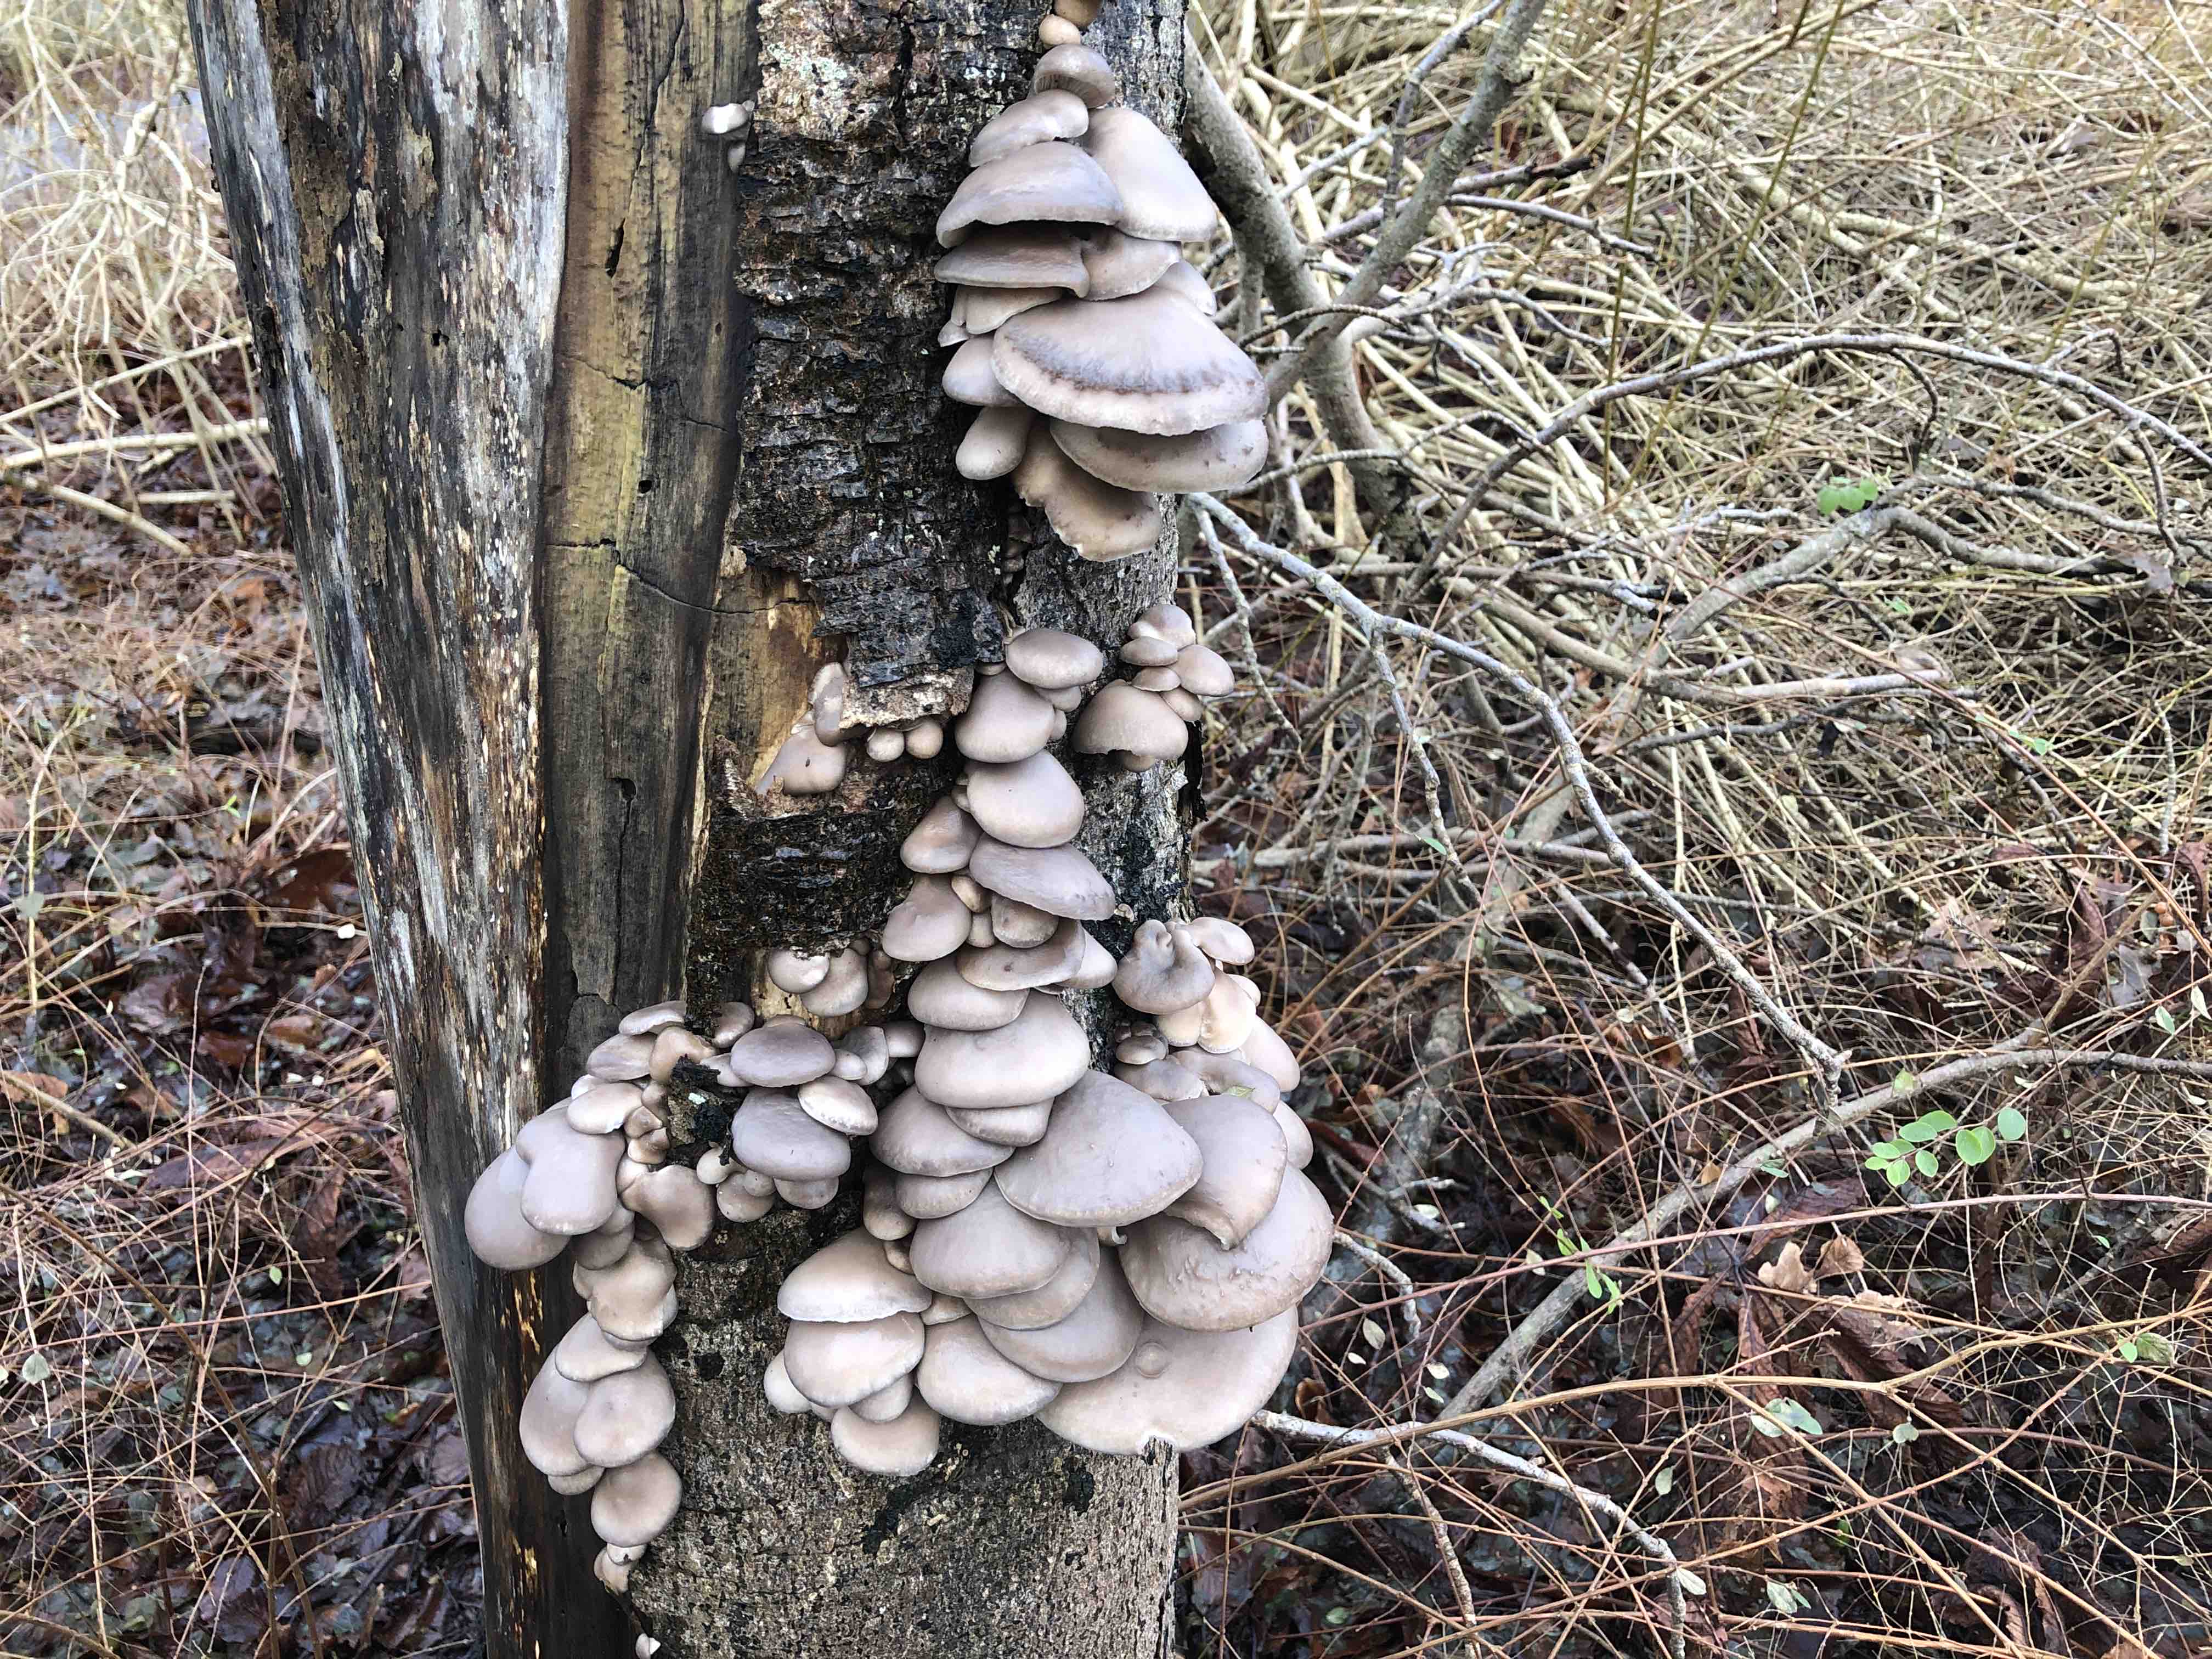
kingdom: Fungi
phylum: Basidiomycota
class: Agaricomycetes
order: Agaricales
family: Pleurotaceae
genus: Pleurotus
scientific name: Pleurotus ostreatus
